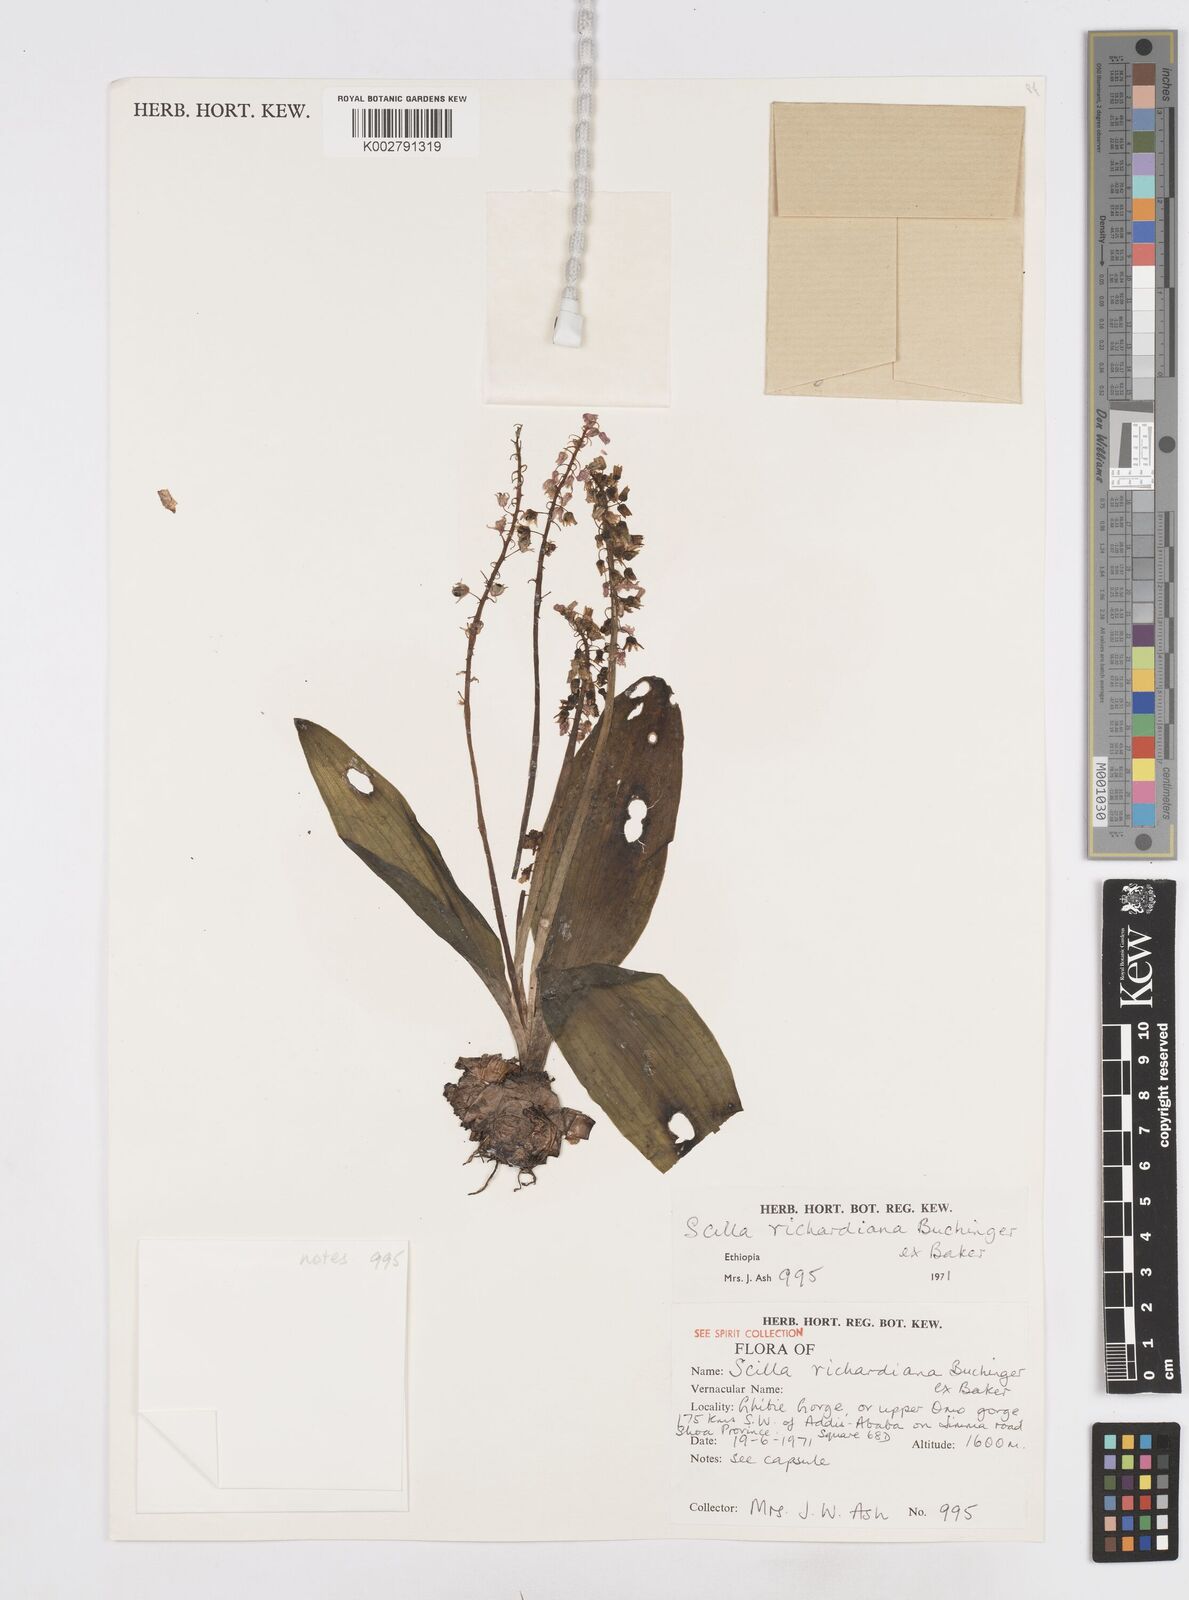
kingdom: Plantae
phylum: Tracheophyta
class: Liliopsida
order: Asparagales
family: Asparagaceae
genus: Ledebouria
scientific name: Ledebouria revoluta
